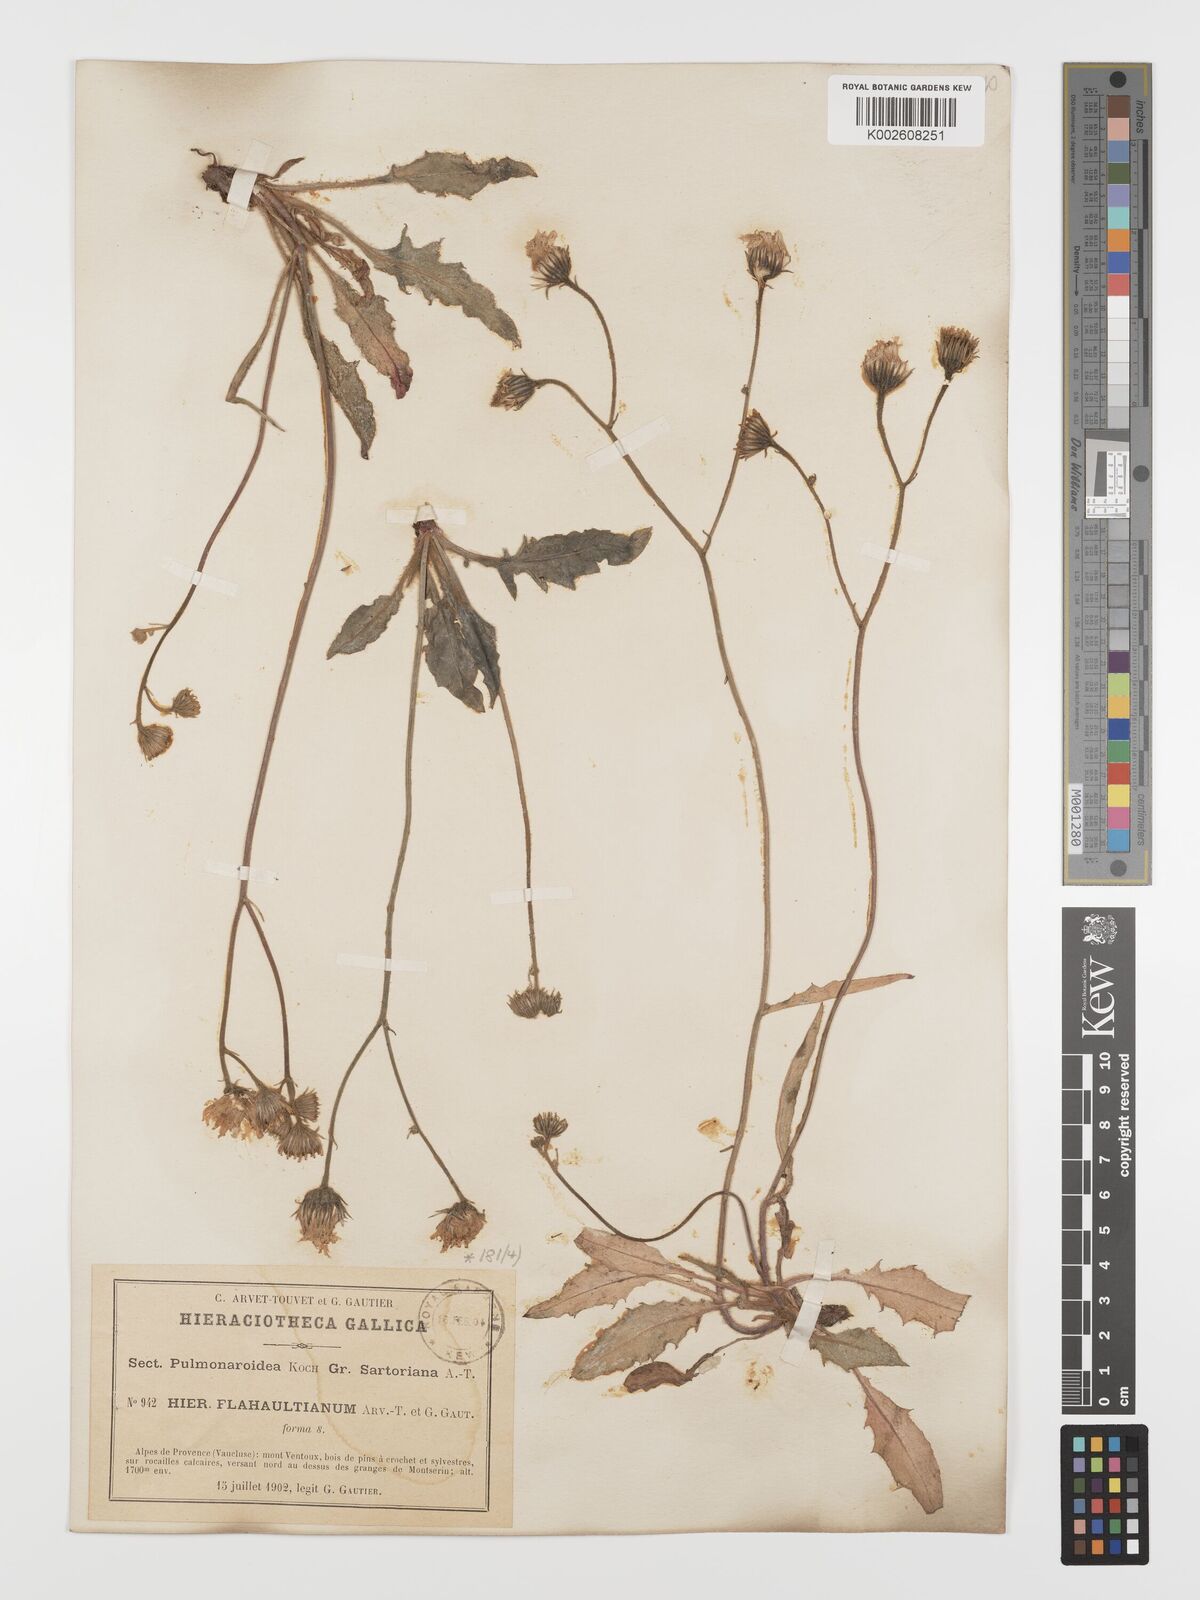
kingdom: Plantae
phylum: Tracheophyta
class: Magnoliopsida
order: Asterales
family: Asteraceae
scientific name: Asteraceae
